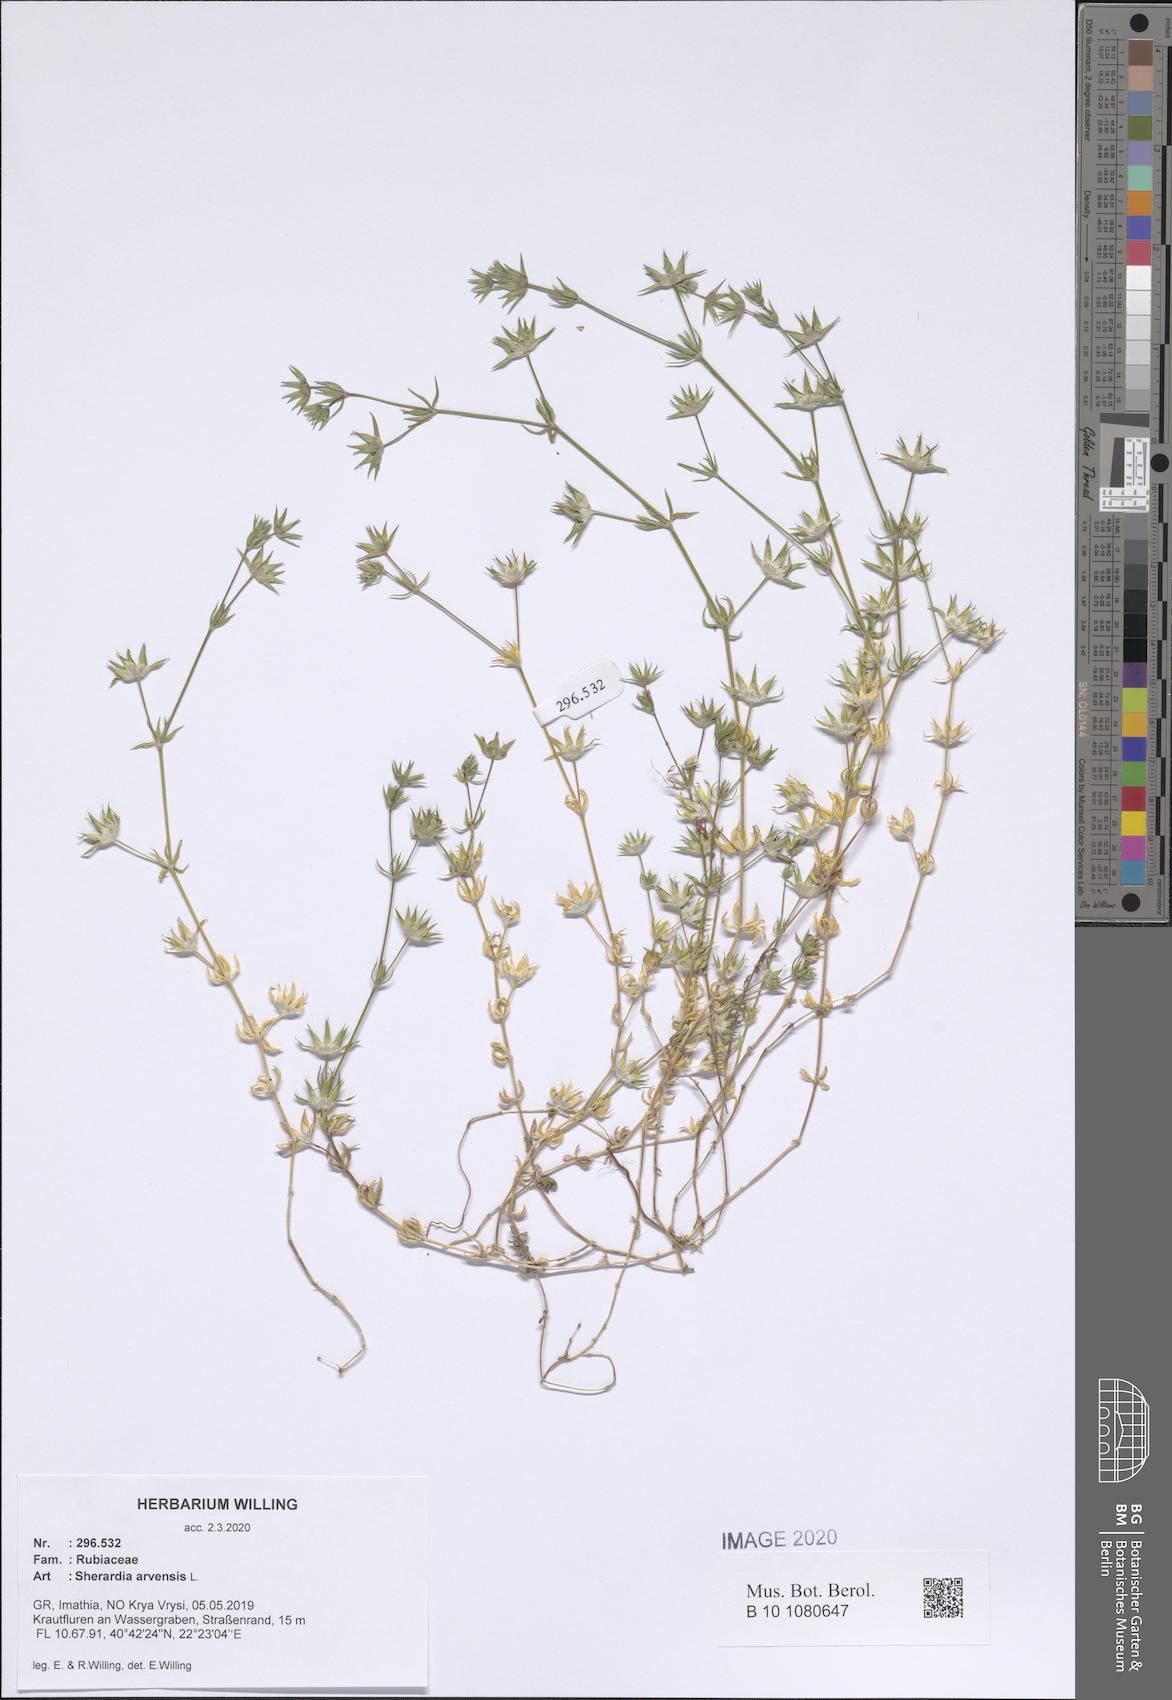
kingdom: Plantae
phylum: Tracheophyta
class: Magnoliopsida
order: Gentianales
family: Rubiaceae
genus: Sherardia
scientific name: Sherardia arvensis
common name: Field madder
